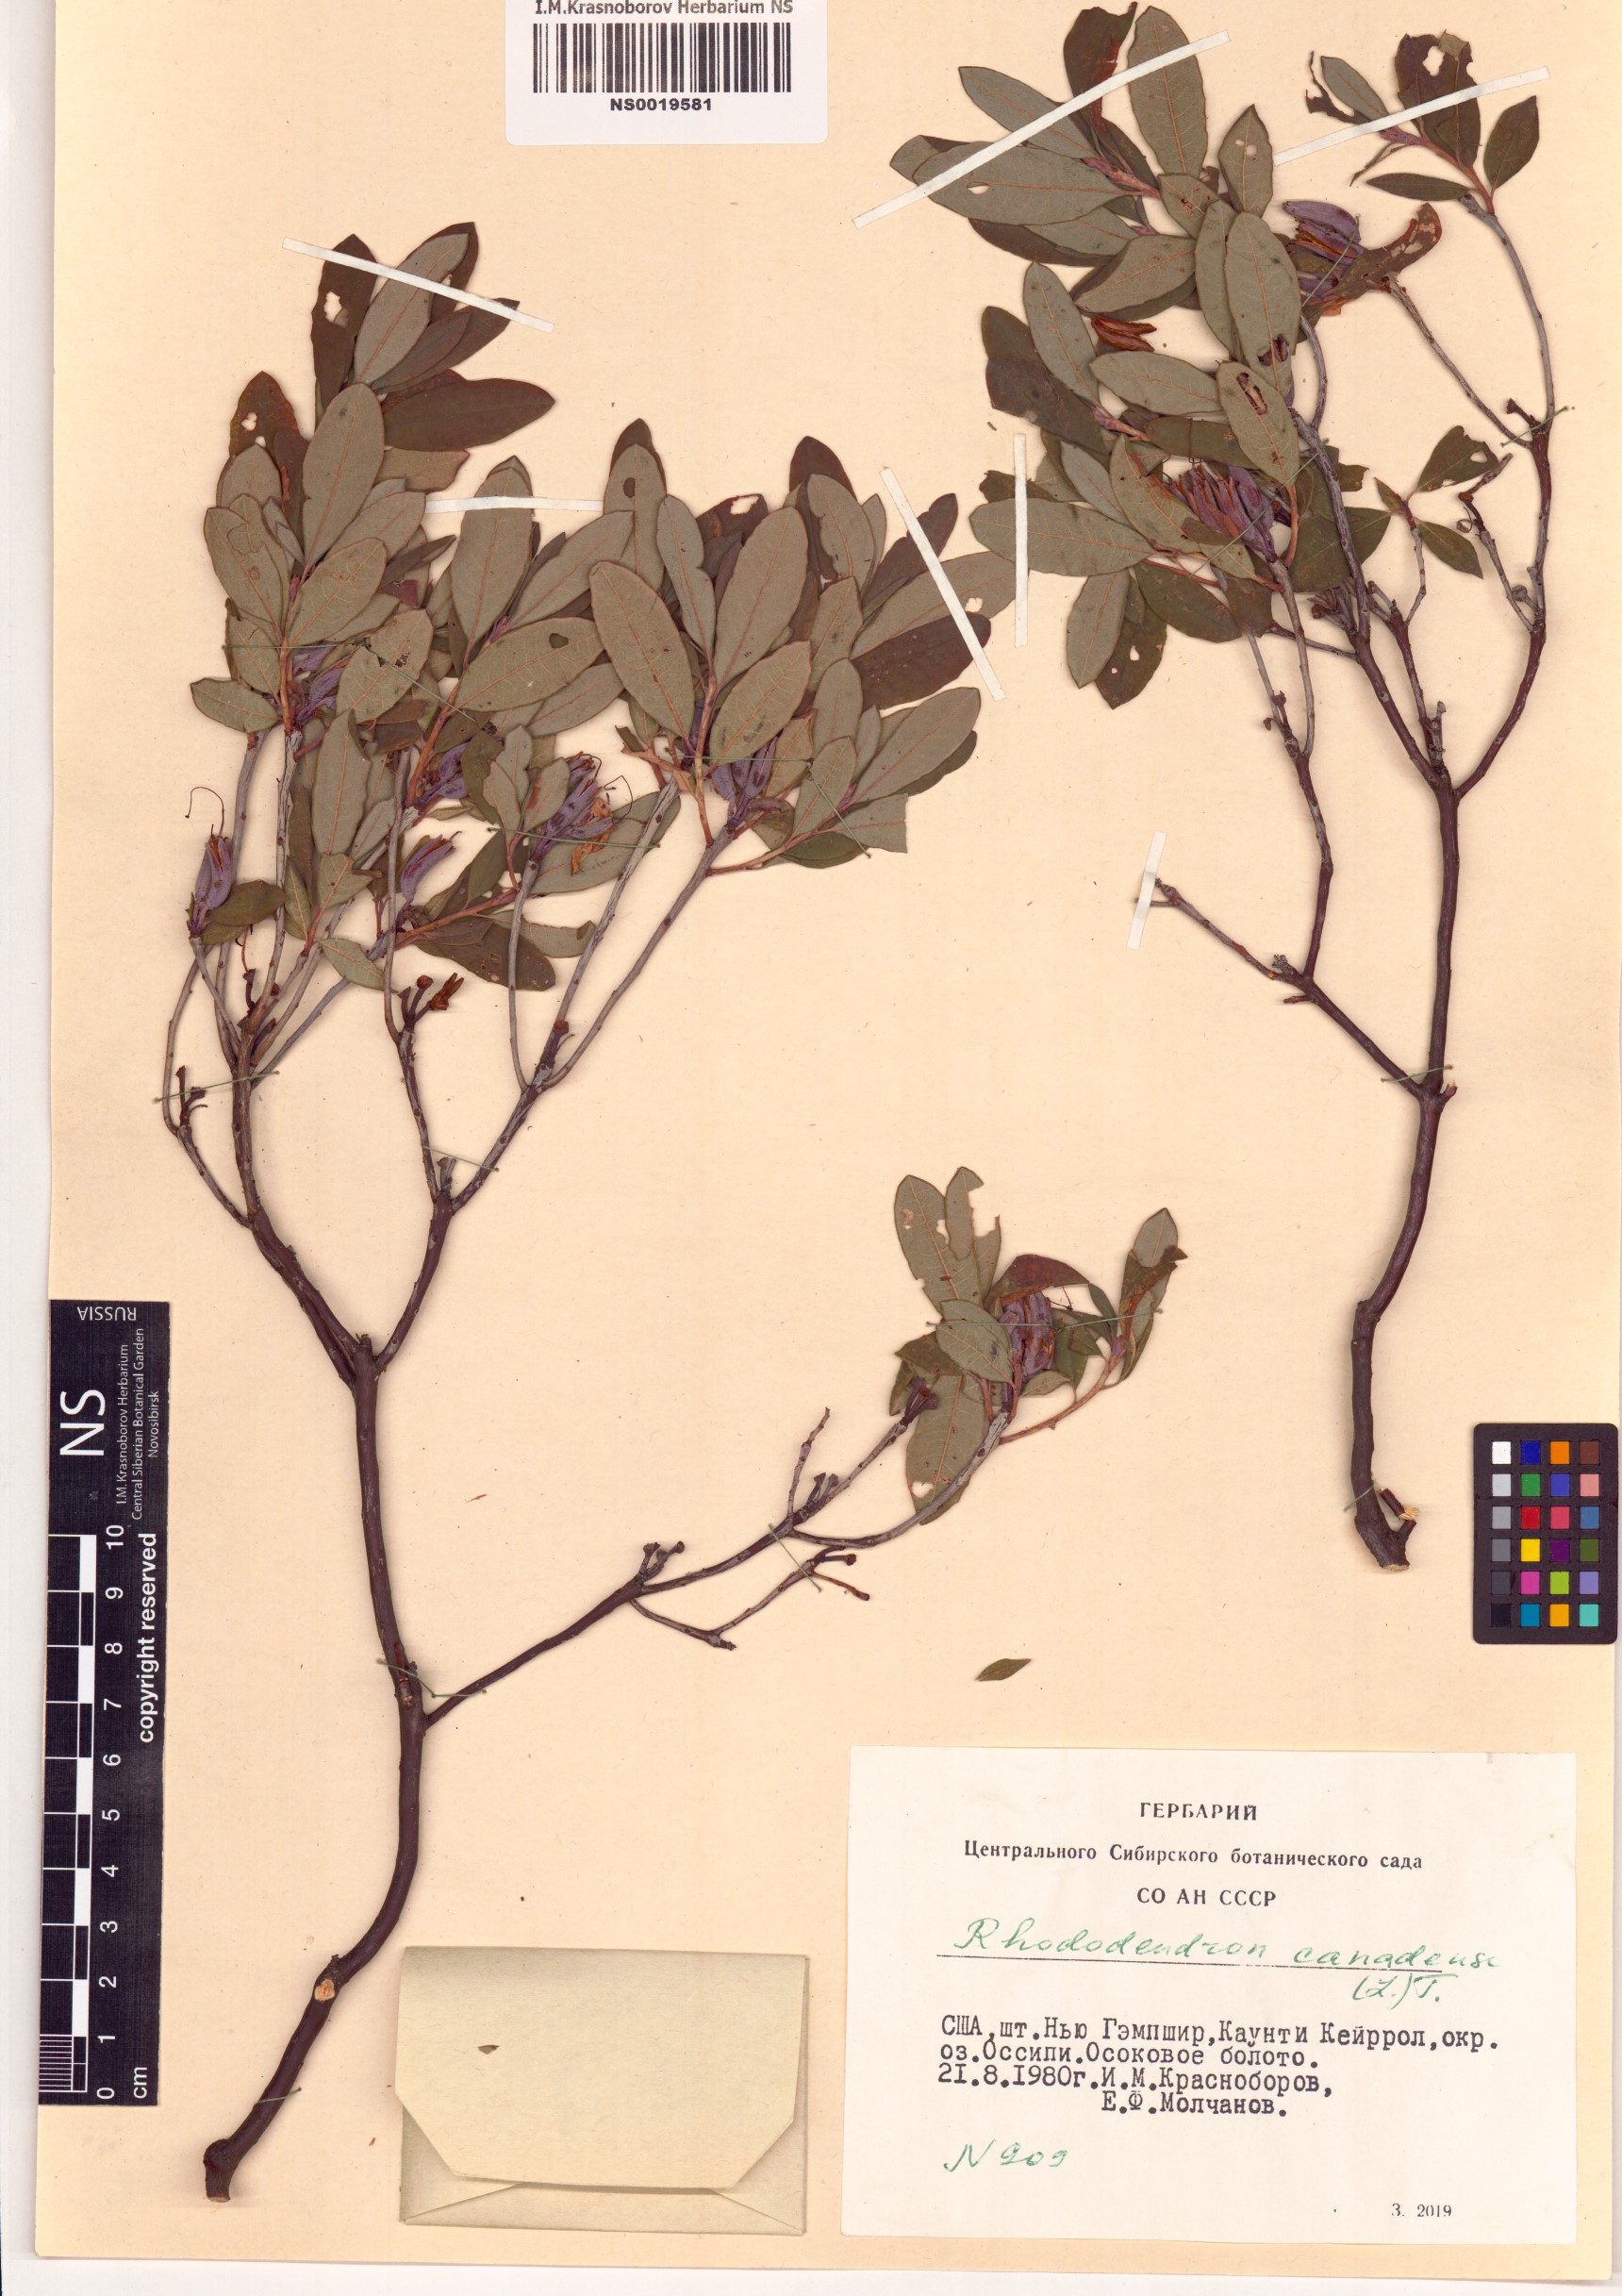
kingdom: Plantae
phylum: Tracheophyta
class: Magnoliopsida
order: Ericales
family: Ericaceae
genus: Rhododendron
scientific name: Rhododendron canadense
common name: Rhodora
